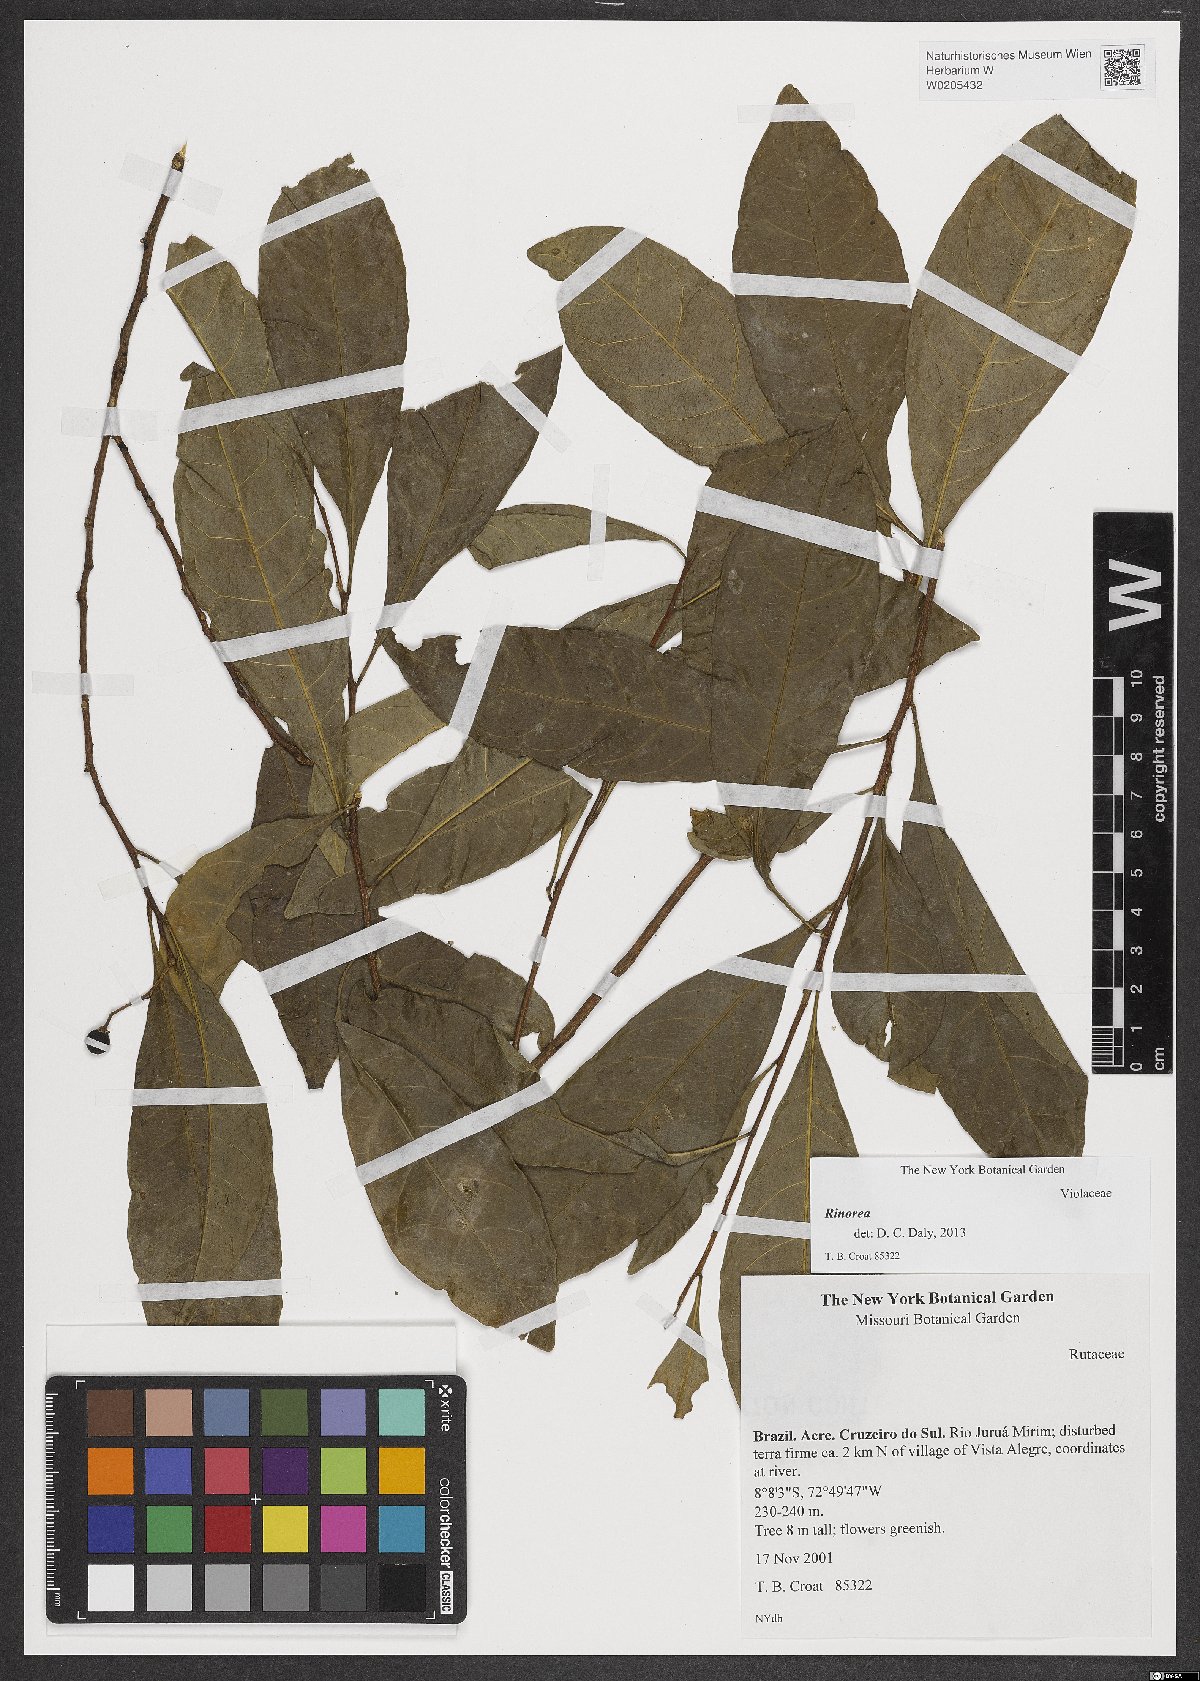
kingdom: Plantae
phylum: Tracheophyta
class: Magnoliopsida
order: Malpighiales
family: Violaceae
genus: Rinorea
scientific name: Rinorea
